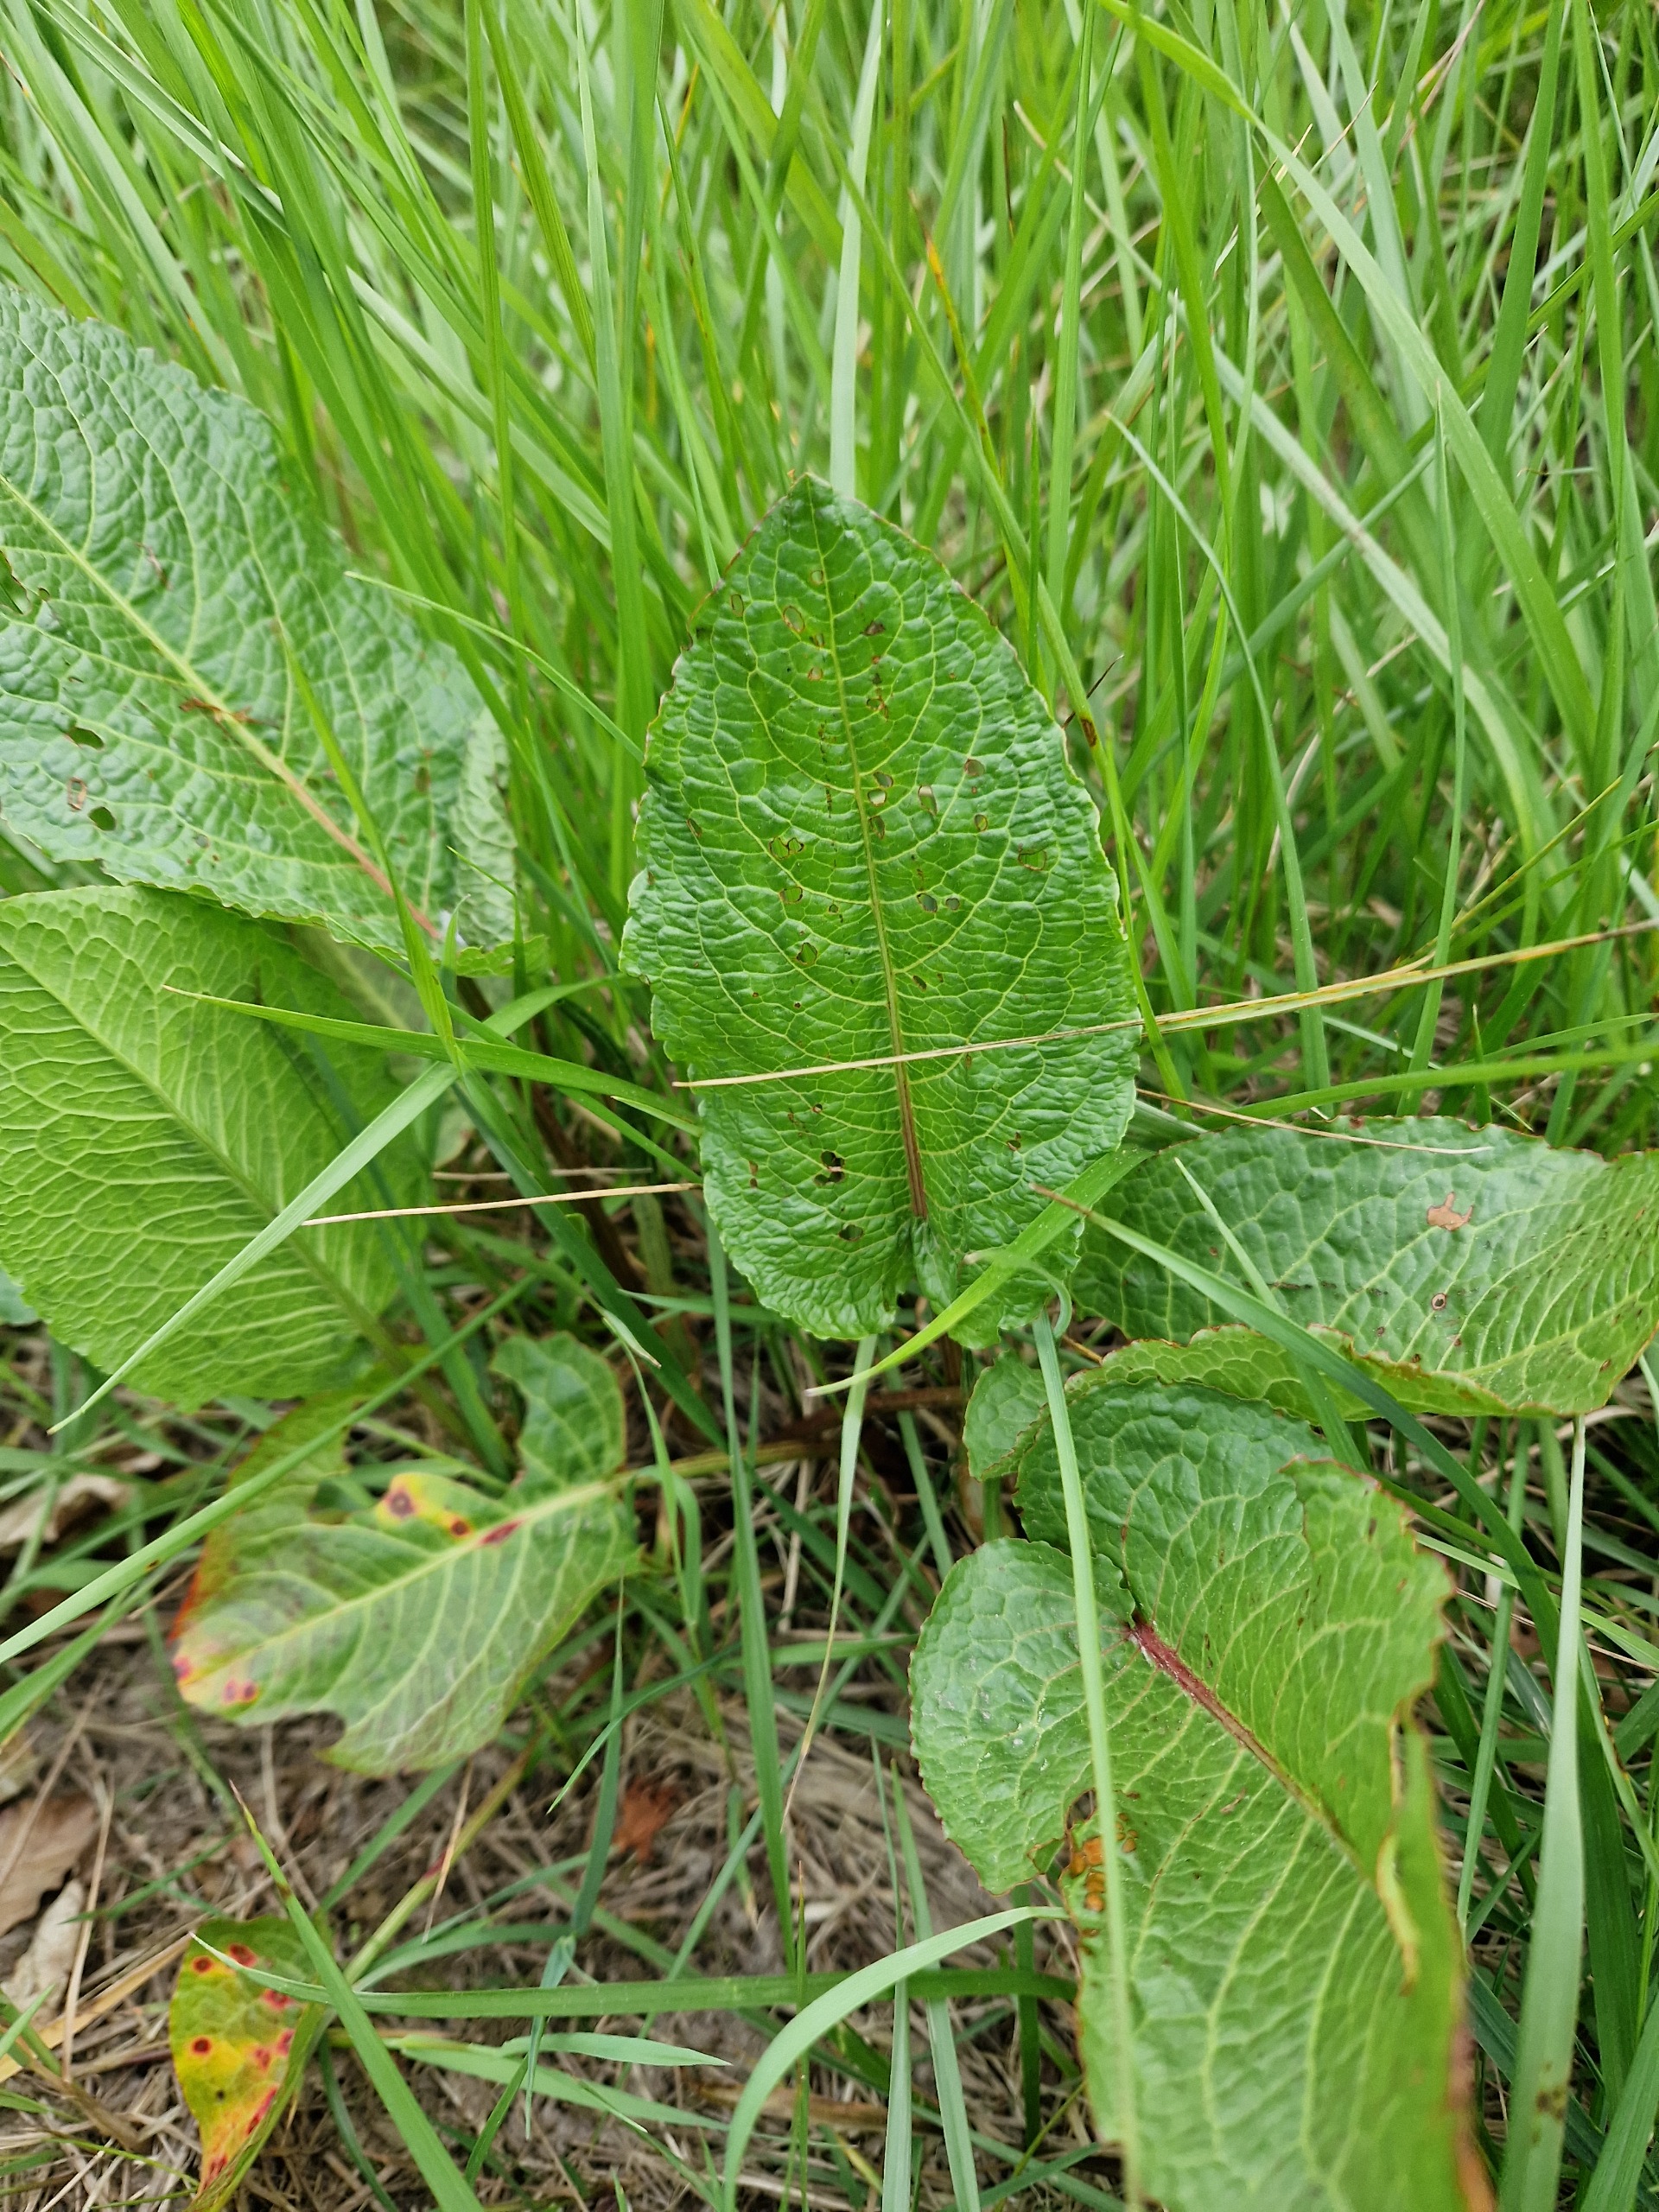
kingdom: Plantae
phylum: Tracheophyta
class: Magnoliopsida
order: Caryophyllales
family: Polygonaceae
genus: Rumex
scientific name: Rumex obtusifolius
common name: Butbladet skræppe
